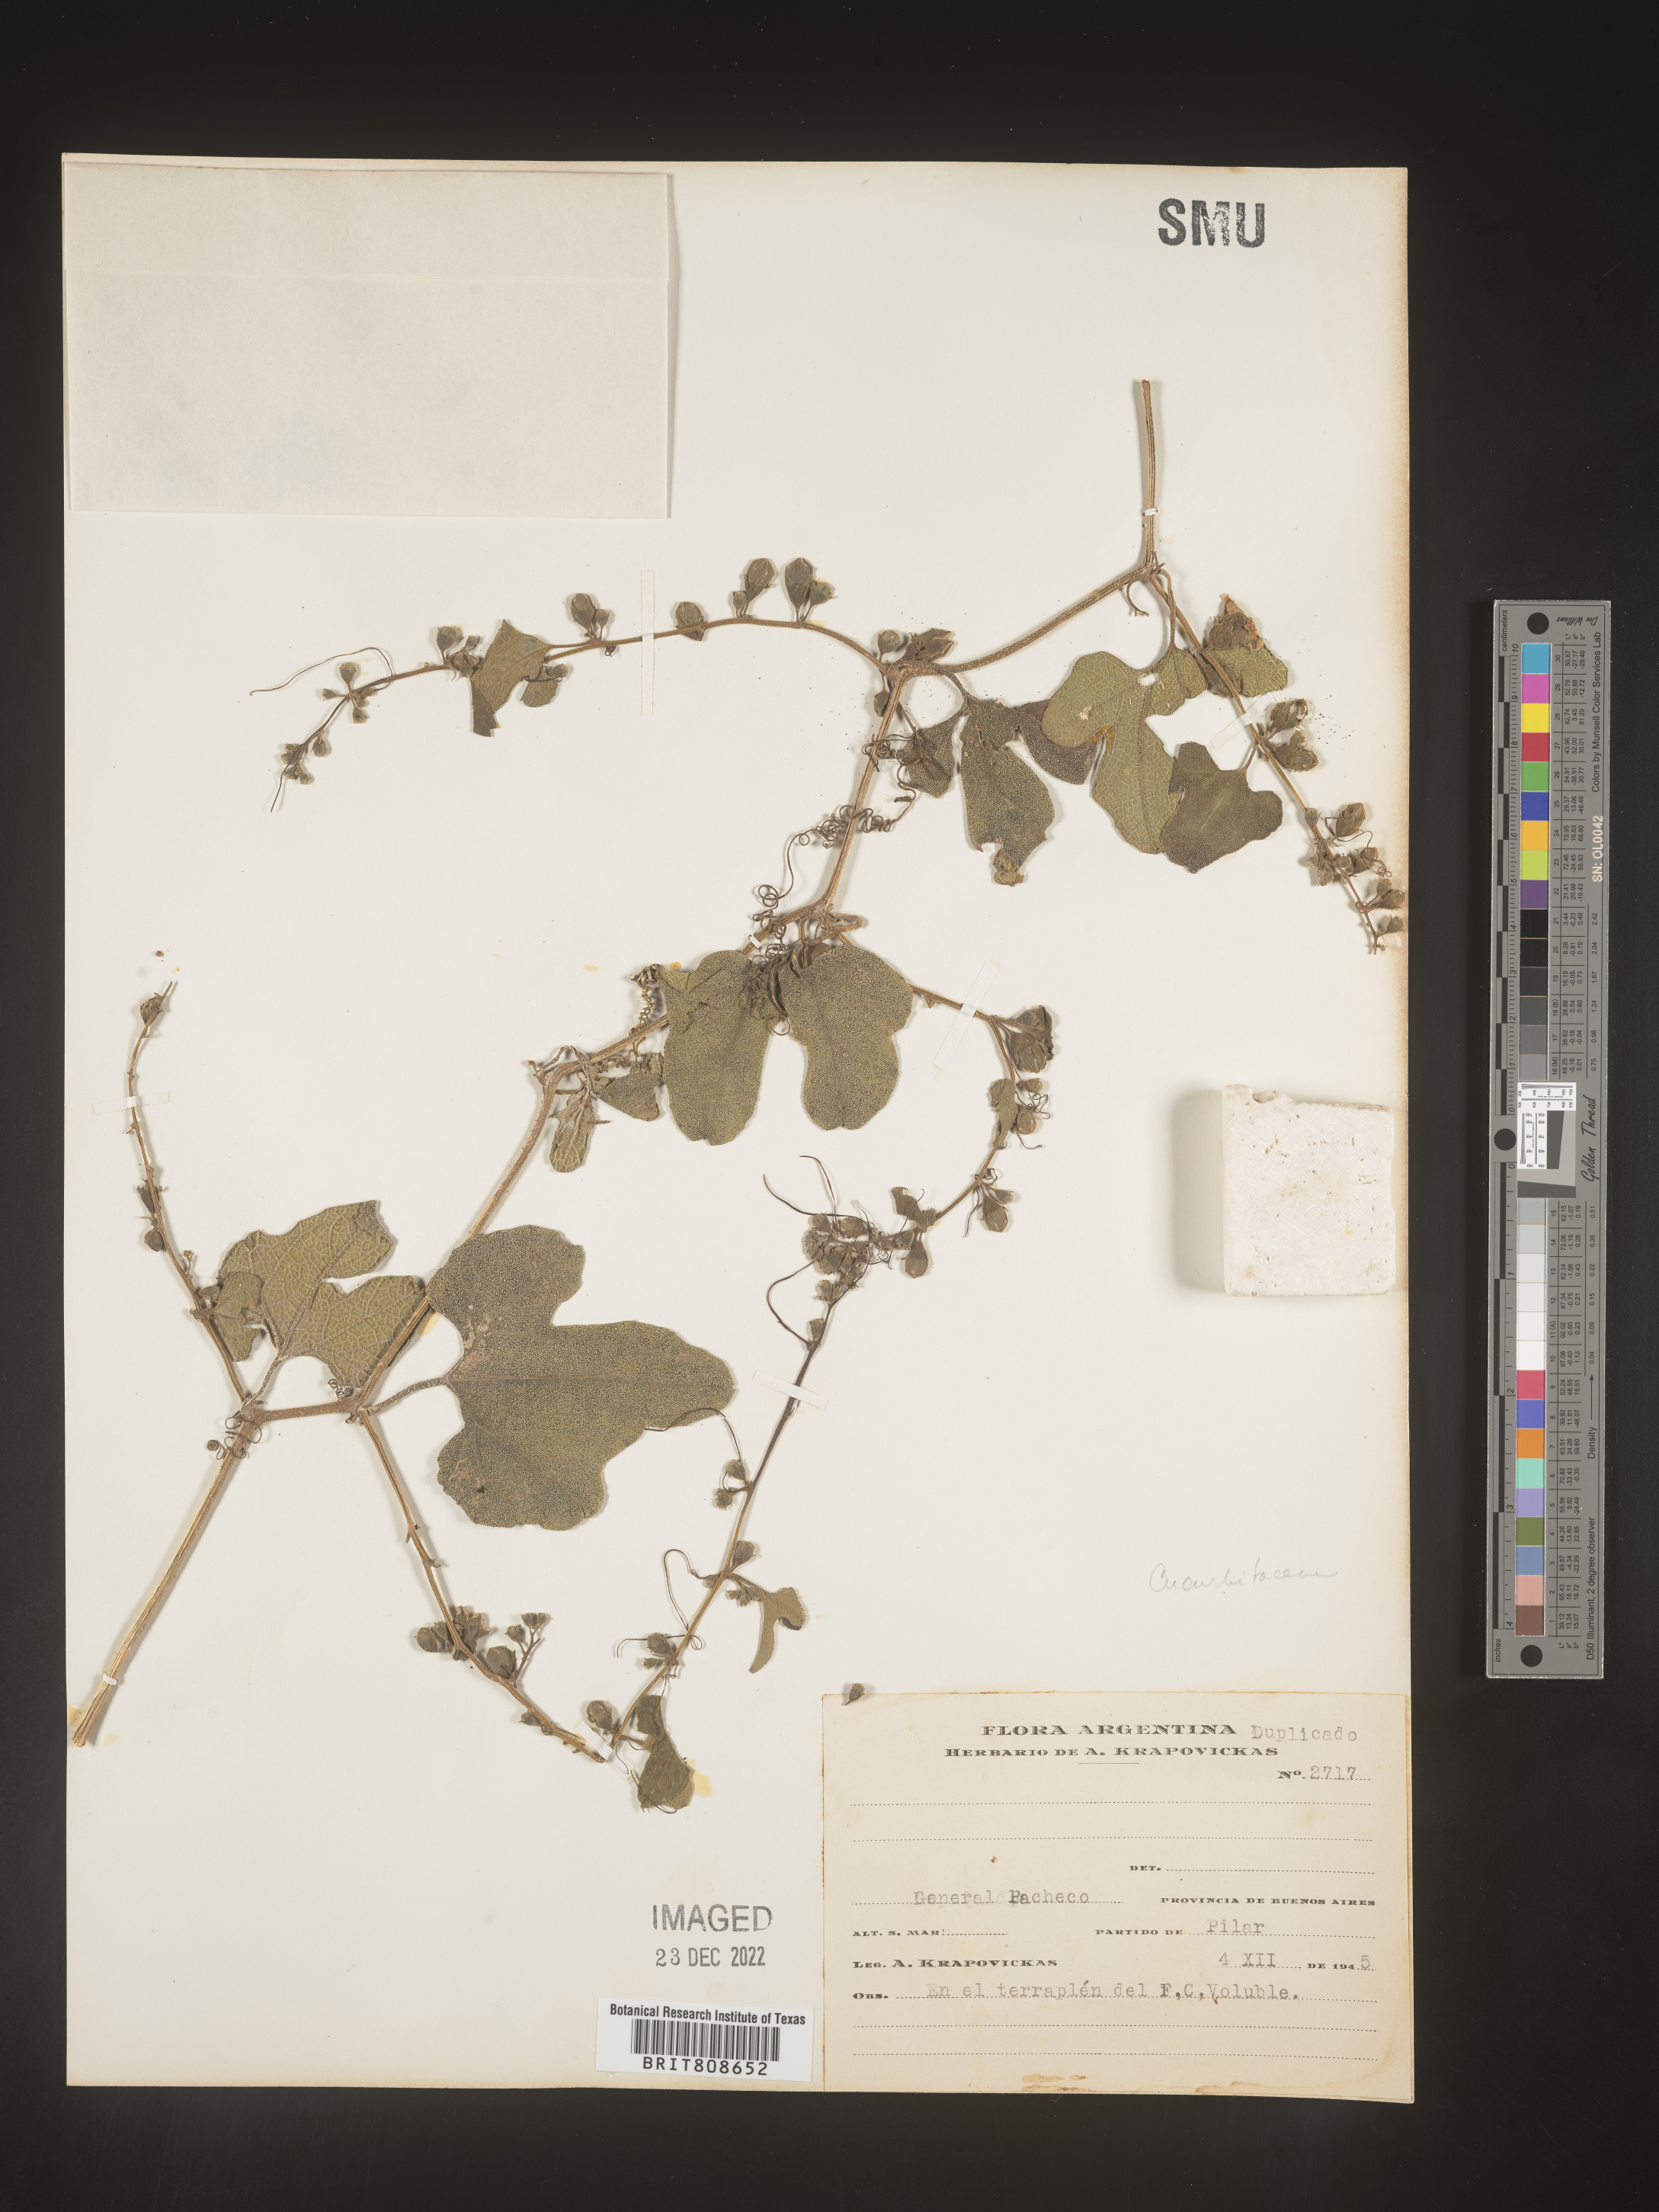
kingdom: Plantae
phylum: Tracheophyta
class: Magnoliopsida
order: Cucurbitales
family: Cucurbitaceae
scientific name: Cucurbitaceae
